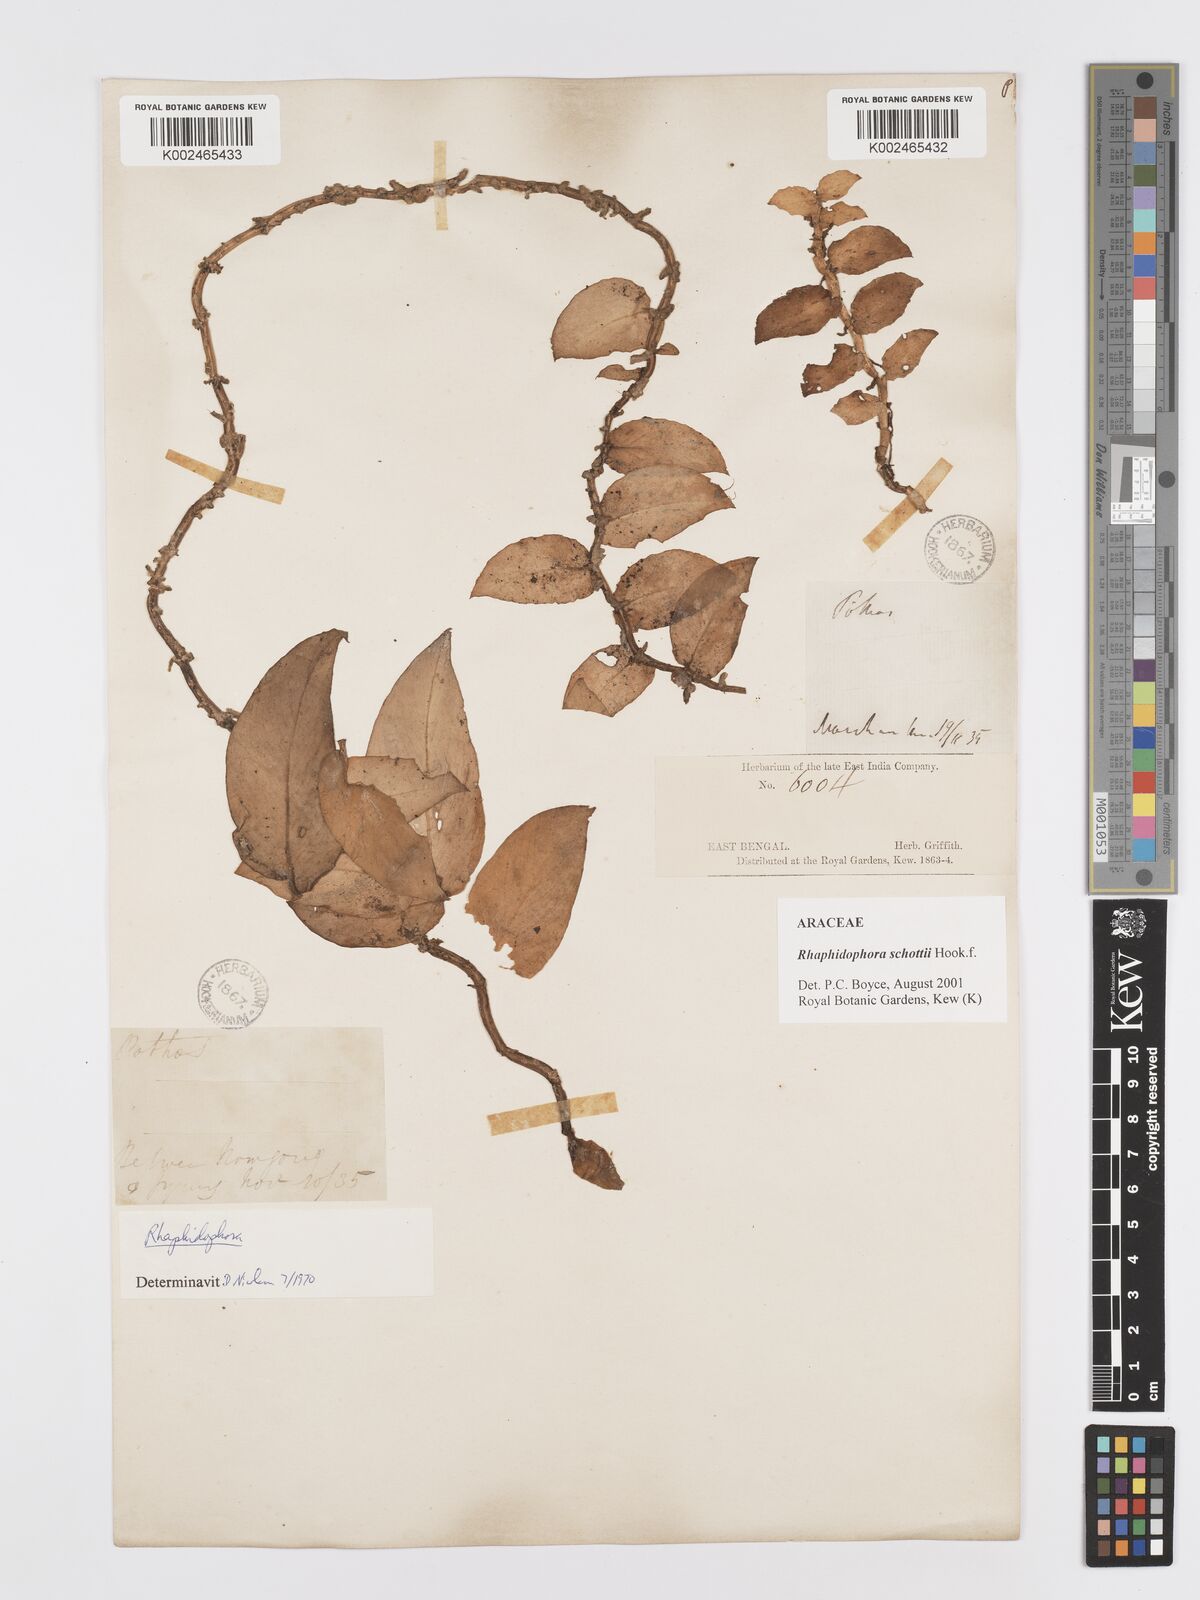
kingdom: Plantae
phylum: Tracheophyta
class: Liliopsida
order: Alismatales
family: Araceae
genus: Rhaphidophora
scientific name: Rhaphidophora schottii
